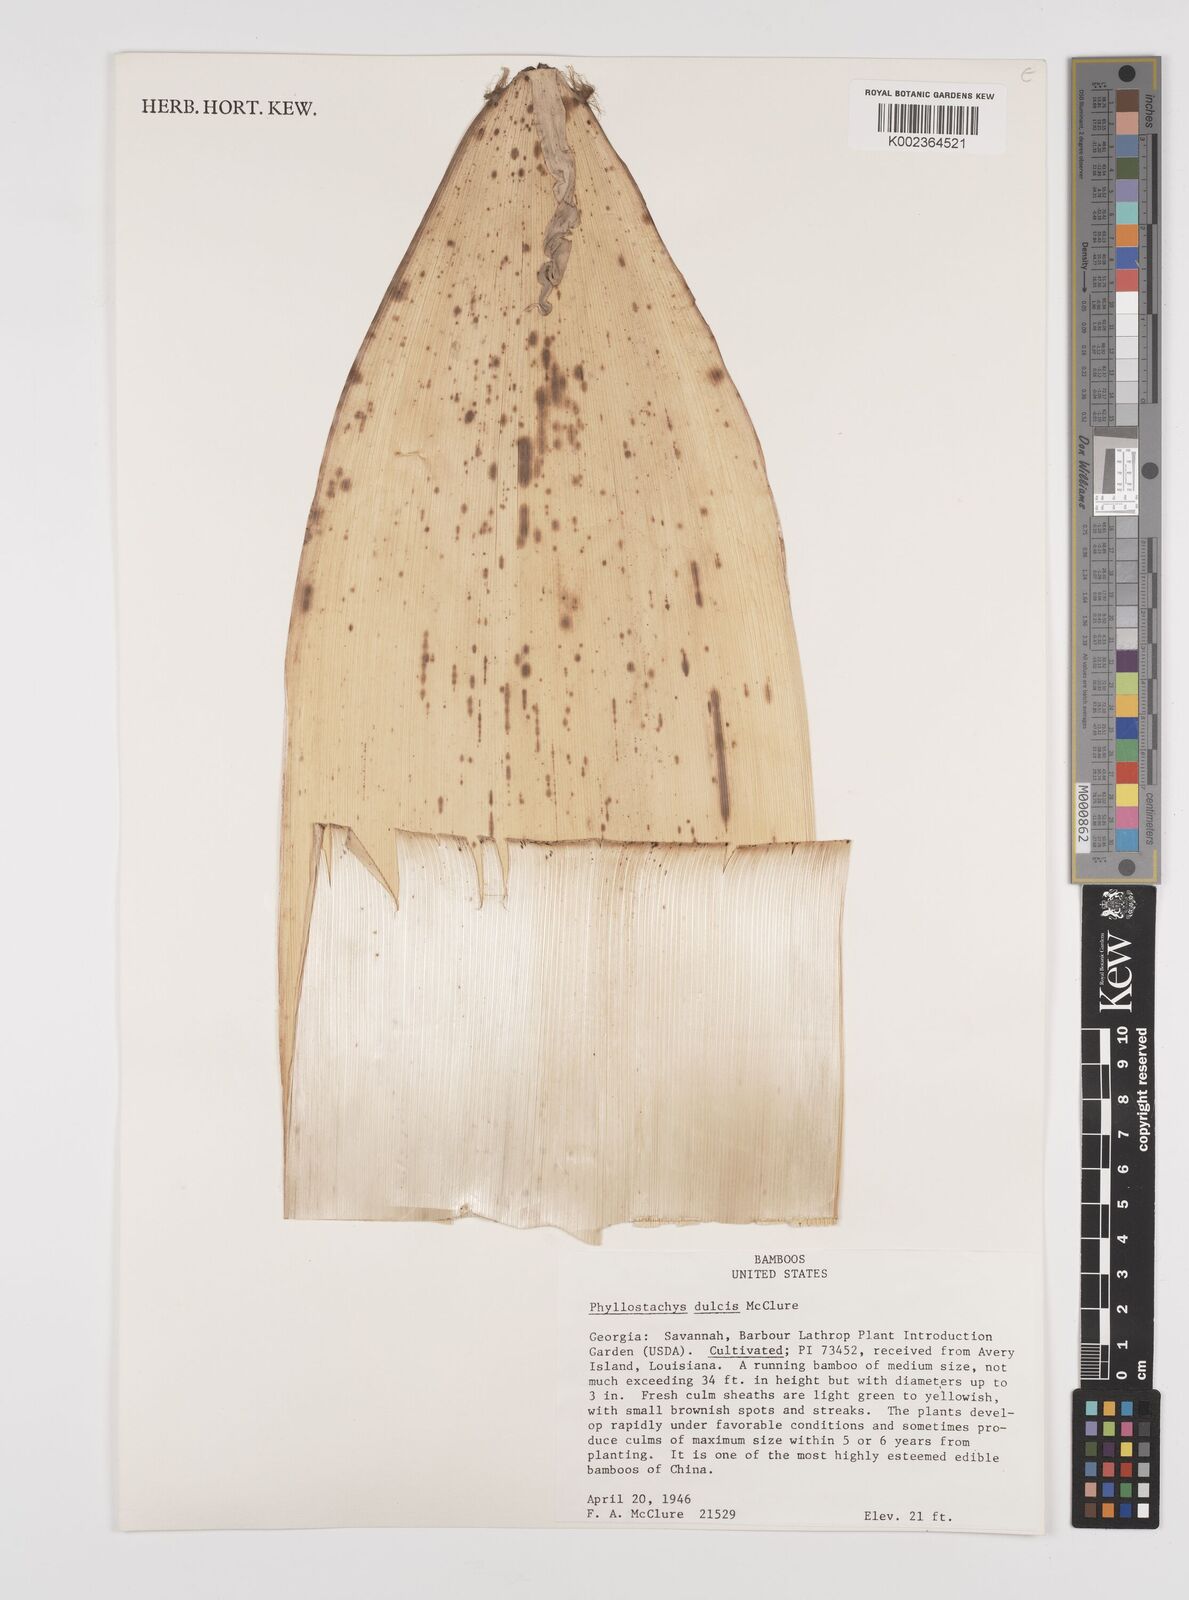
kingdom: Plantae
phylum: Tracheophyta
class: Liliopsida
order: Poales
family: Poaceae
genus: Phyllostachys
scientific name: Phyllostachys dulcis
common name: Sweetshoot bamboo
